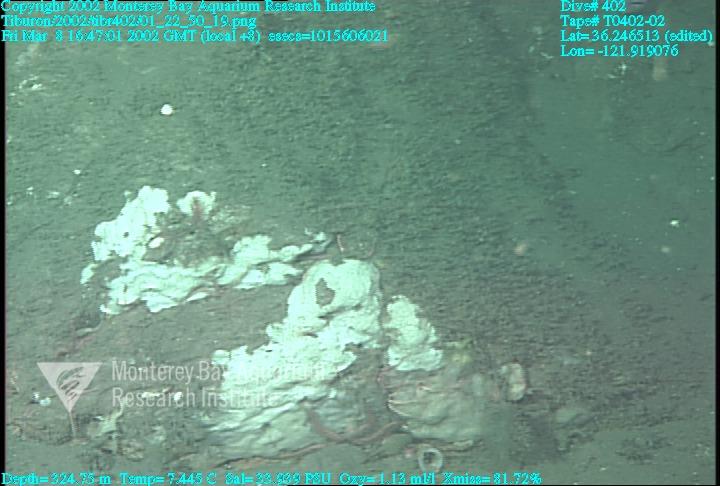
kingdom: Animalia
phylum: Porifera
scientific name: Porifera
